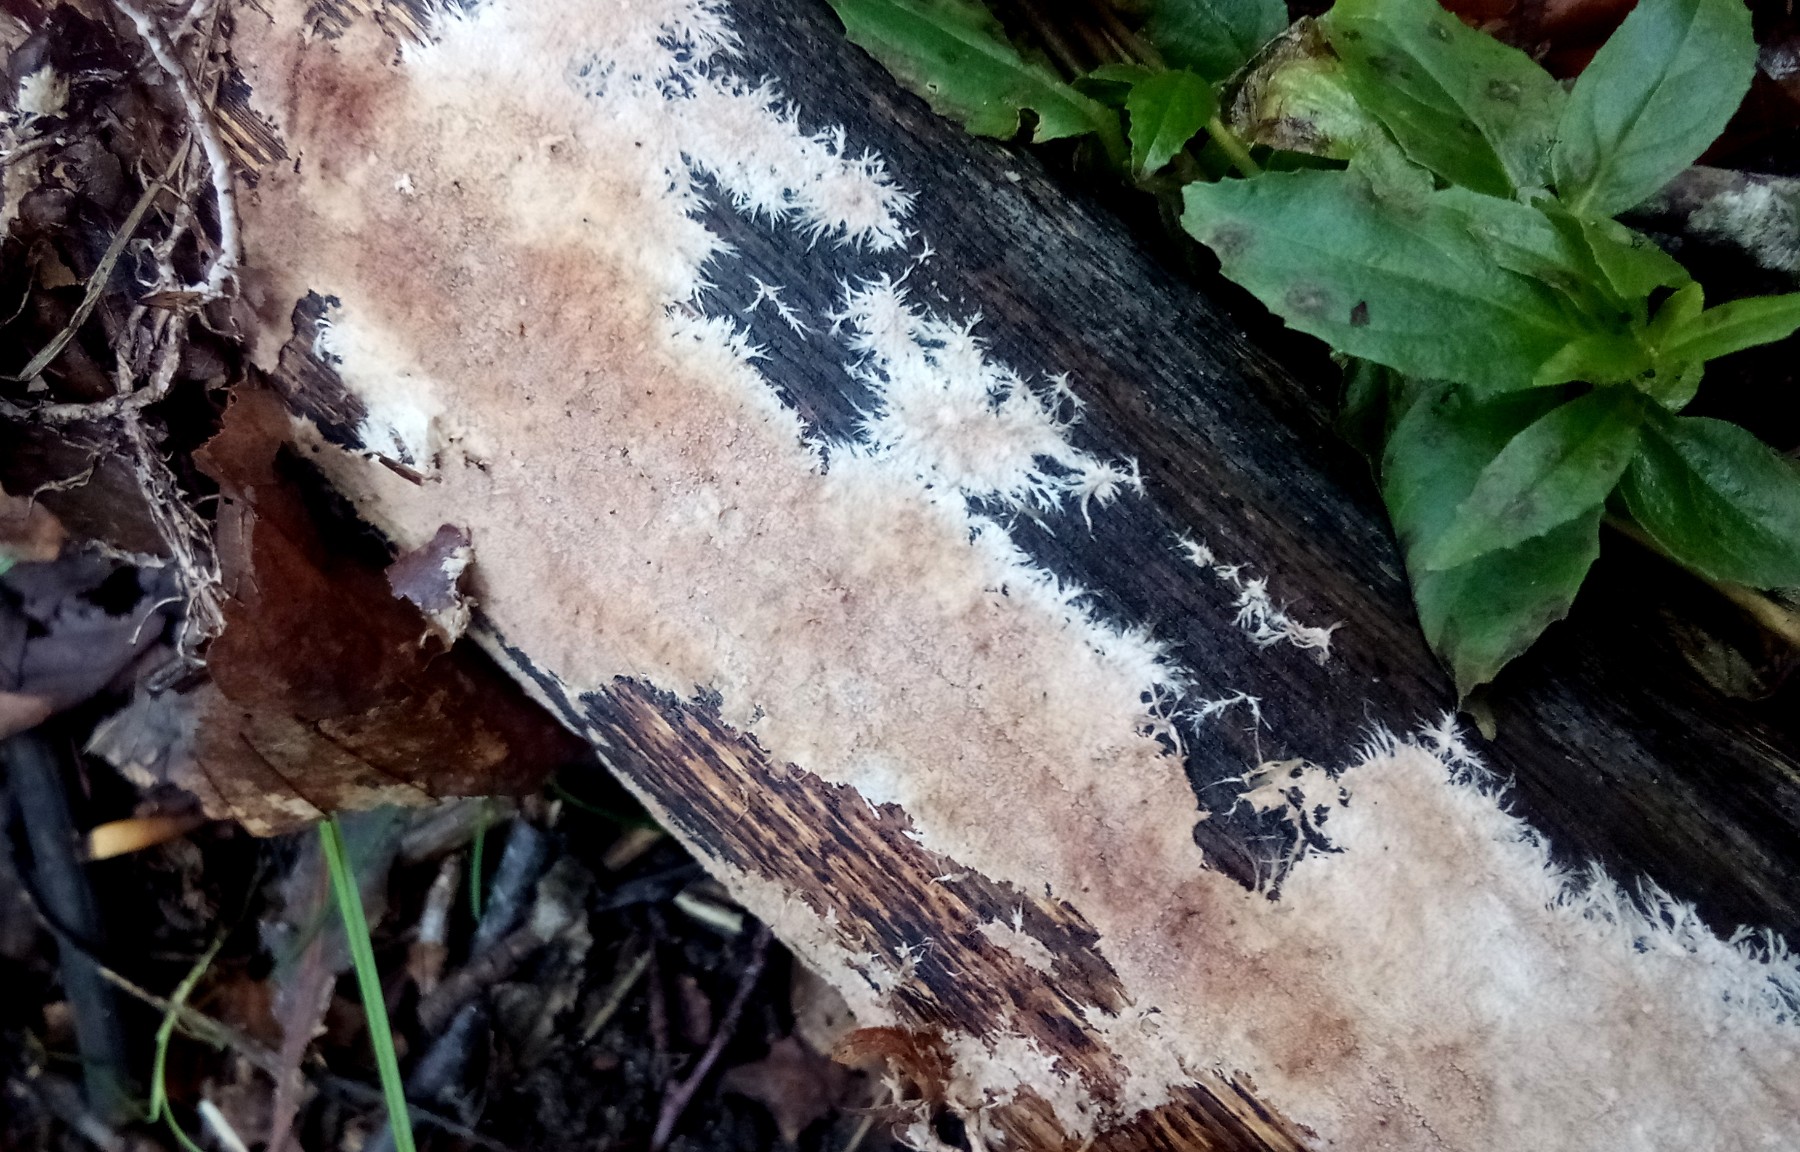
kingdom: Fungi
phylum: Basidiomycota
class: Agaricomycetes
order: Polyporales
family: Steccherinaceae
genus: Steccherinum
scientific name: Steccherinum fimbriatum
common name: trådet skønpig
